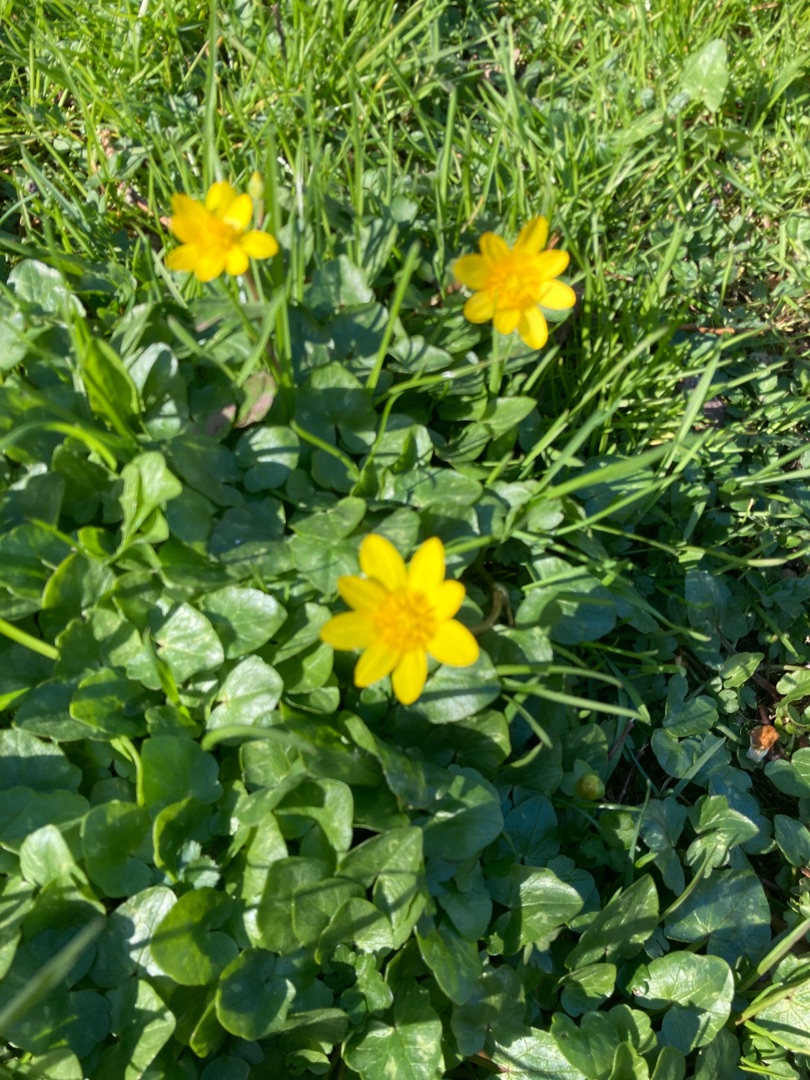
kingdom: Plantae
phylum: Tracheophyta
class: Magnoliopsida
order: Ranunculales
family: Ranunculaceae
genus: Ficaria
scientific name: Ficaria verna
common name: Vorterod
